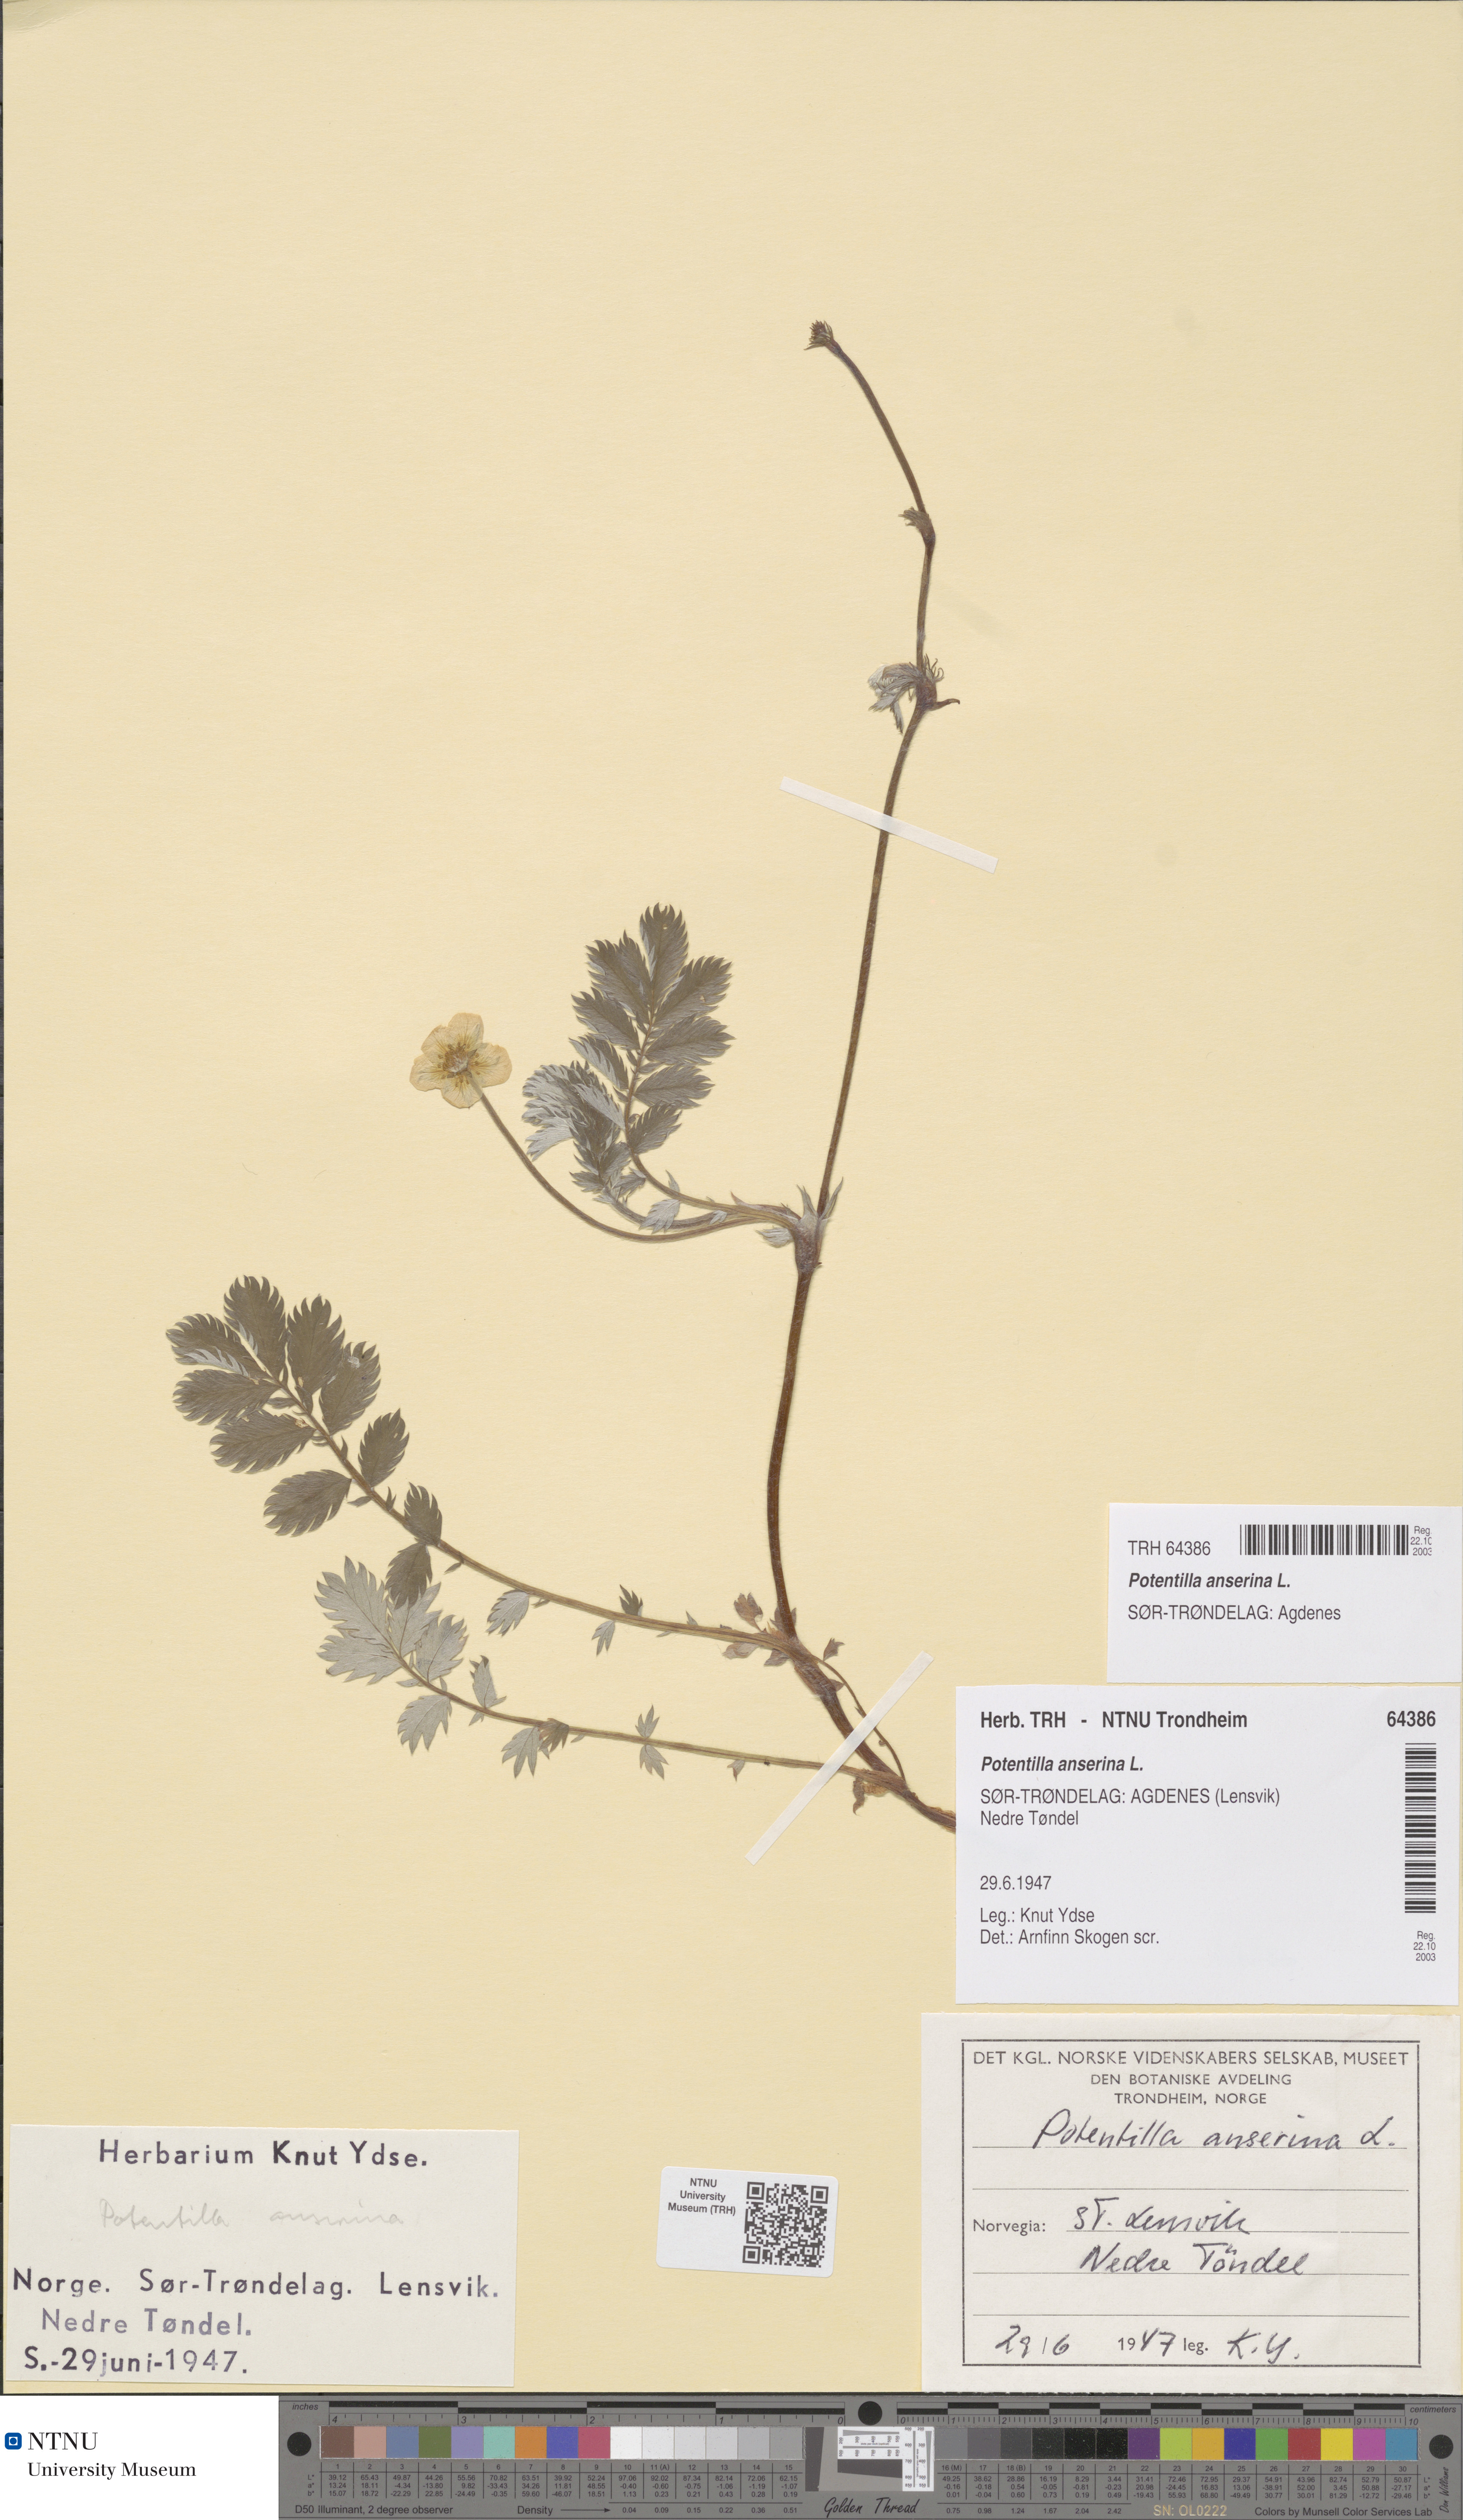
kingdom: Plantae
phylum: Tracheophyta
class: Magnoliopsida
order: Rosales
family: Rosaceae
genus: Argentina
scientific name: Argentina anserina
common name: Common silverweed
